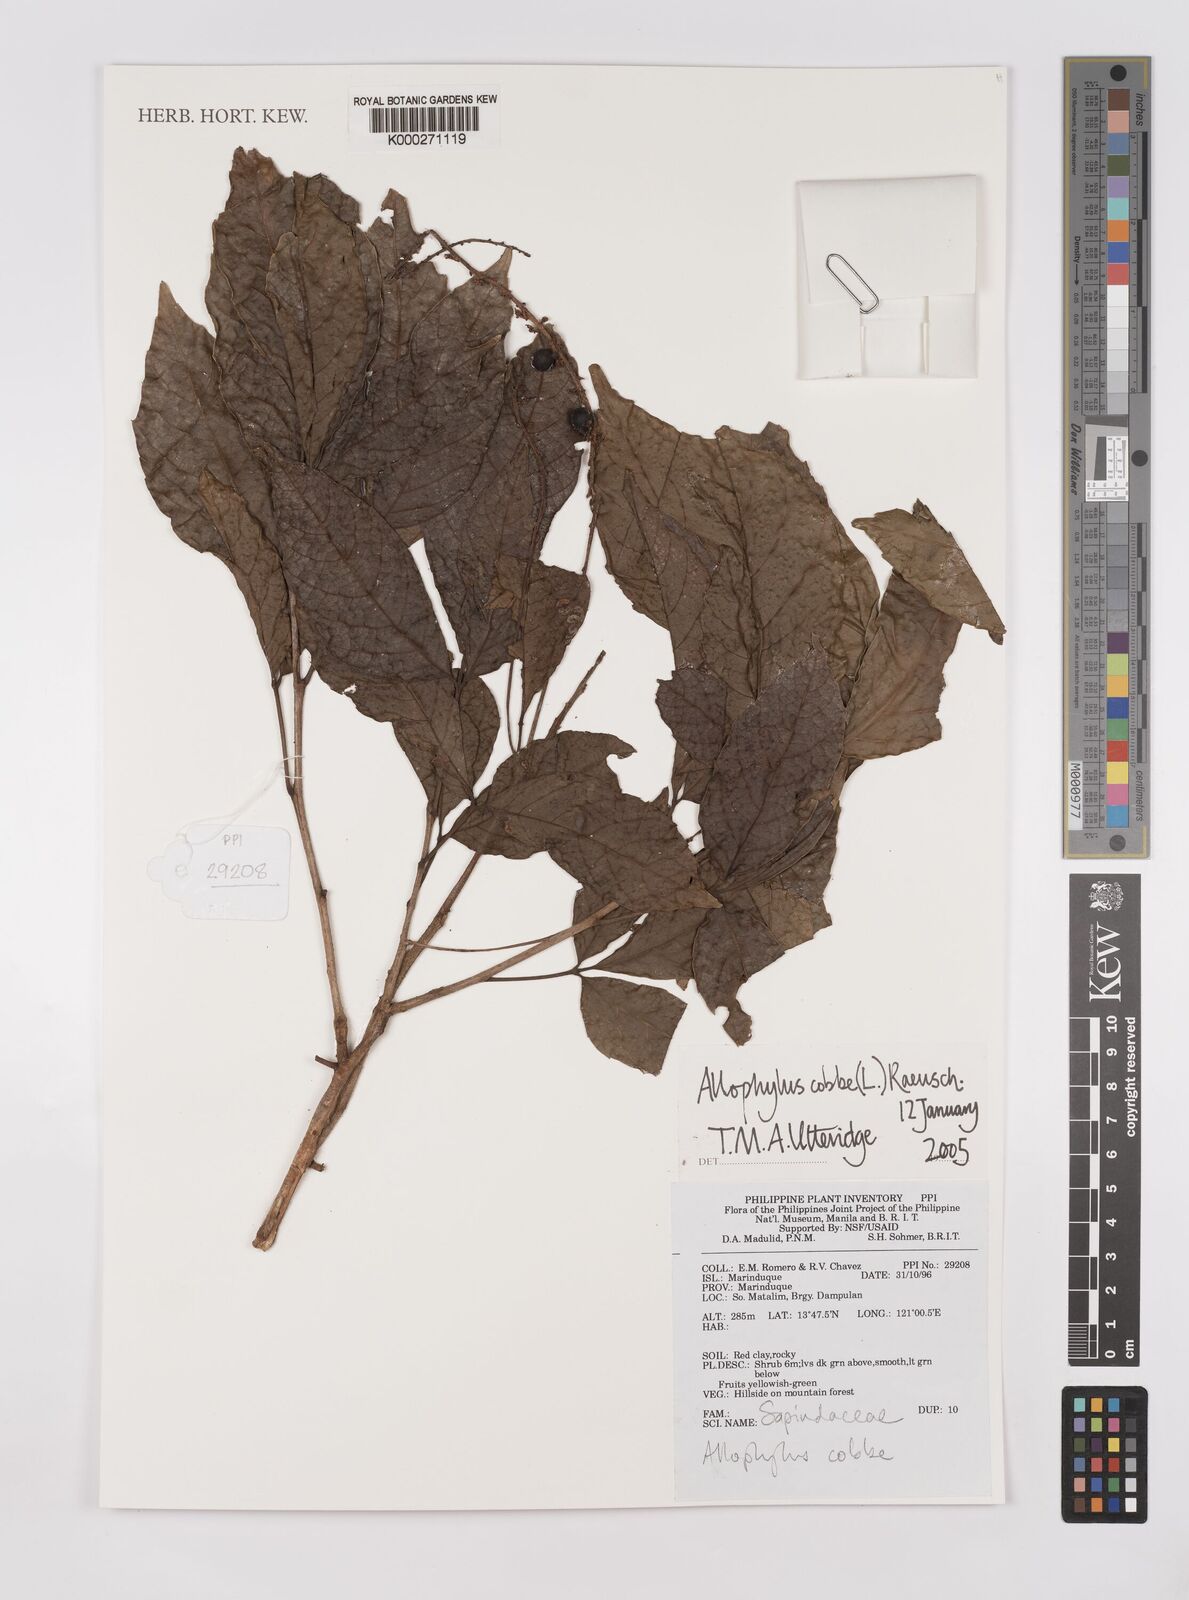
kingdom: Plantae
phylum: Tracheophyta
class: Magnoliopsida
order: Sapindales
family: Sapindaceae
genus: Allophylus
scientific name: Allophylus
